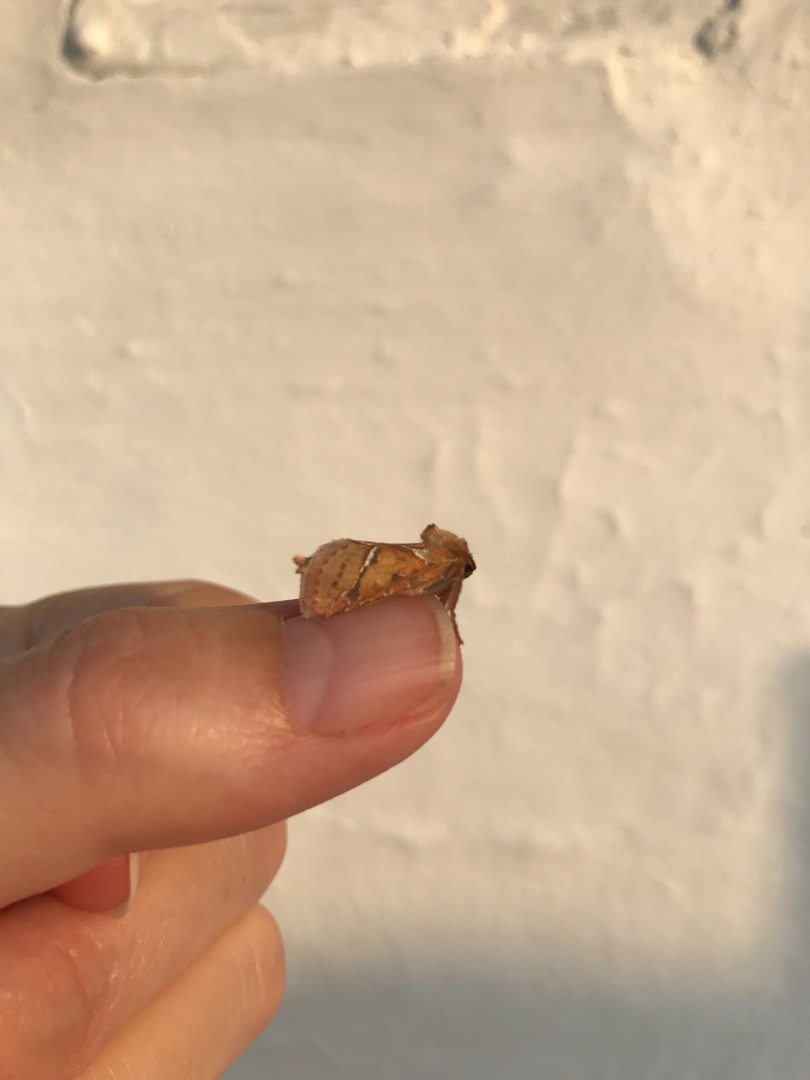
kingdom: Animalia
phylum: Arthropoda
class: Insecta
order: Lepidoptera
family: Hepialidae
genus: Triodia
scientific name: Triodia sylvina
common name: Skræpperodæder
